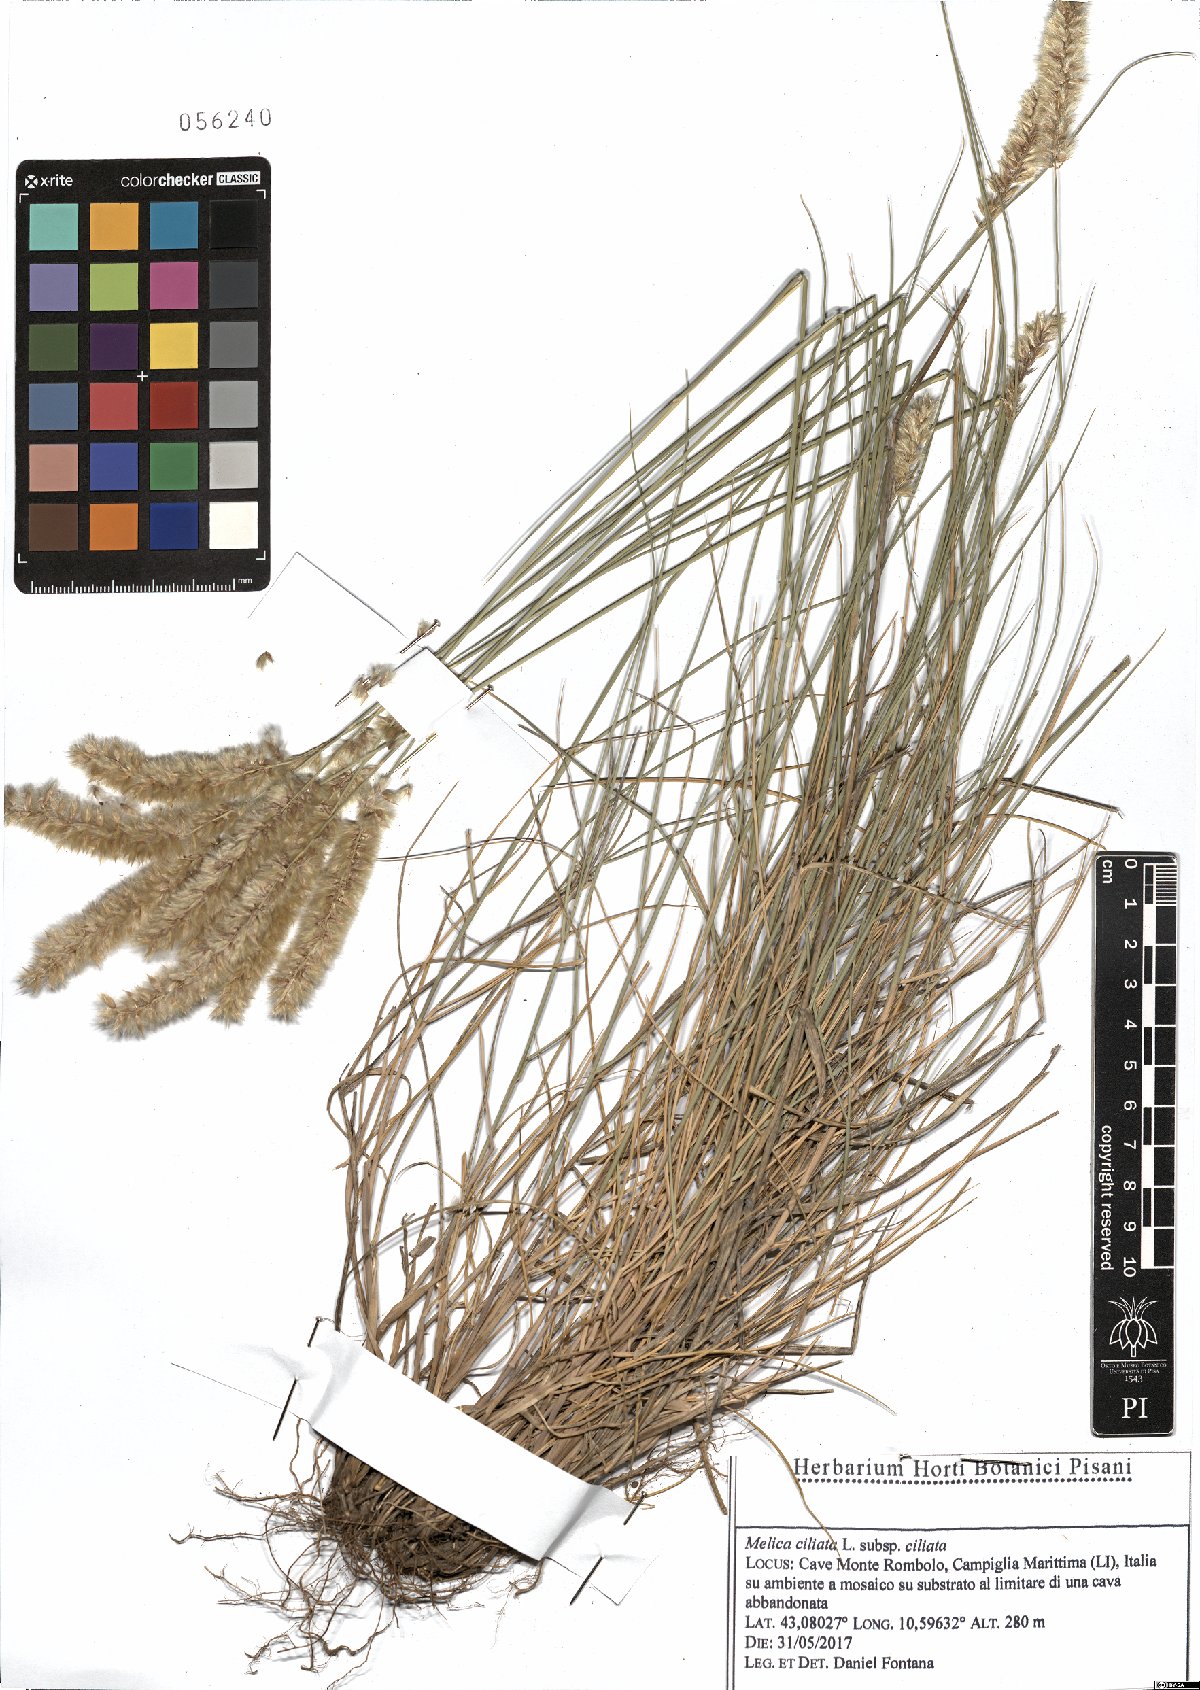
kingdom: Plantae
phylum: Tracheophyta
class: Liliopsida
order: Poales
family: Poaceae
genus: Melica
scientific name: Melica ciliata
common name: Hairy melicgrass
